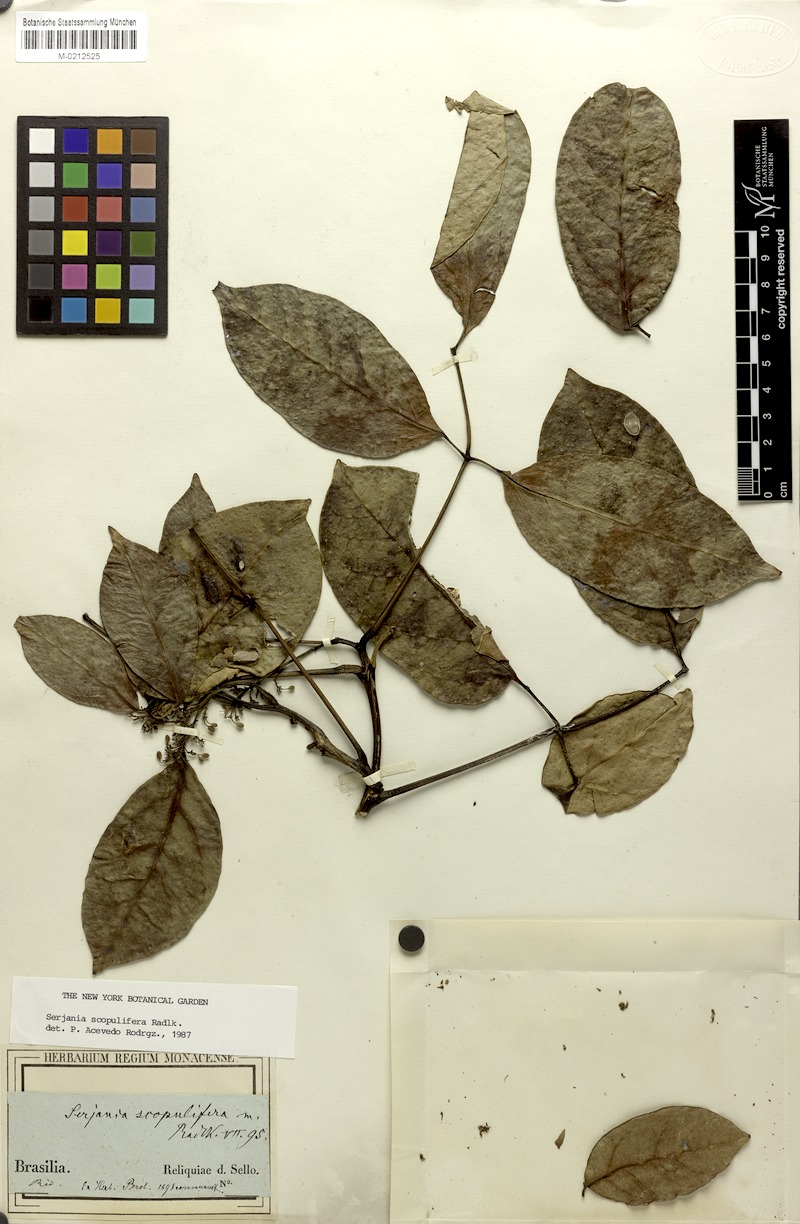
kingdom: Plantae
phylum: Tracheophyta
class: Magnoliopsida
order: Sapindales
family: Sapindaceae
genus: Serjania
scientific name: Serjania scopulifera
